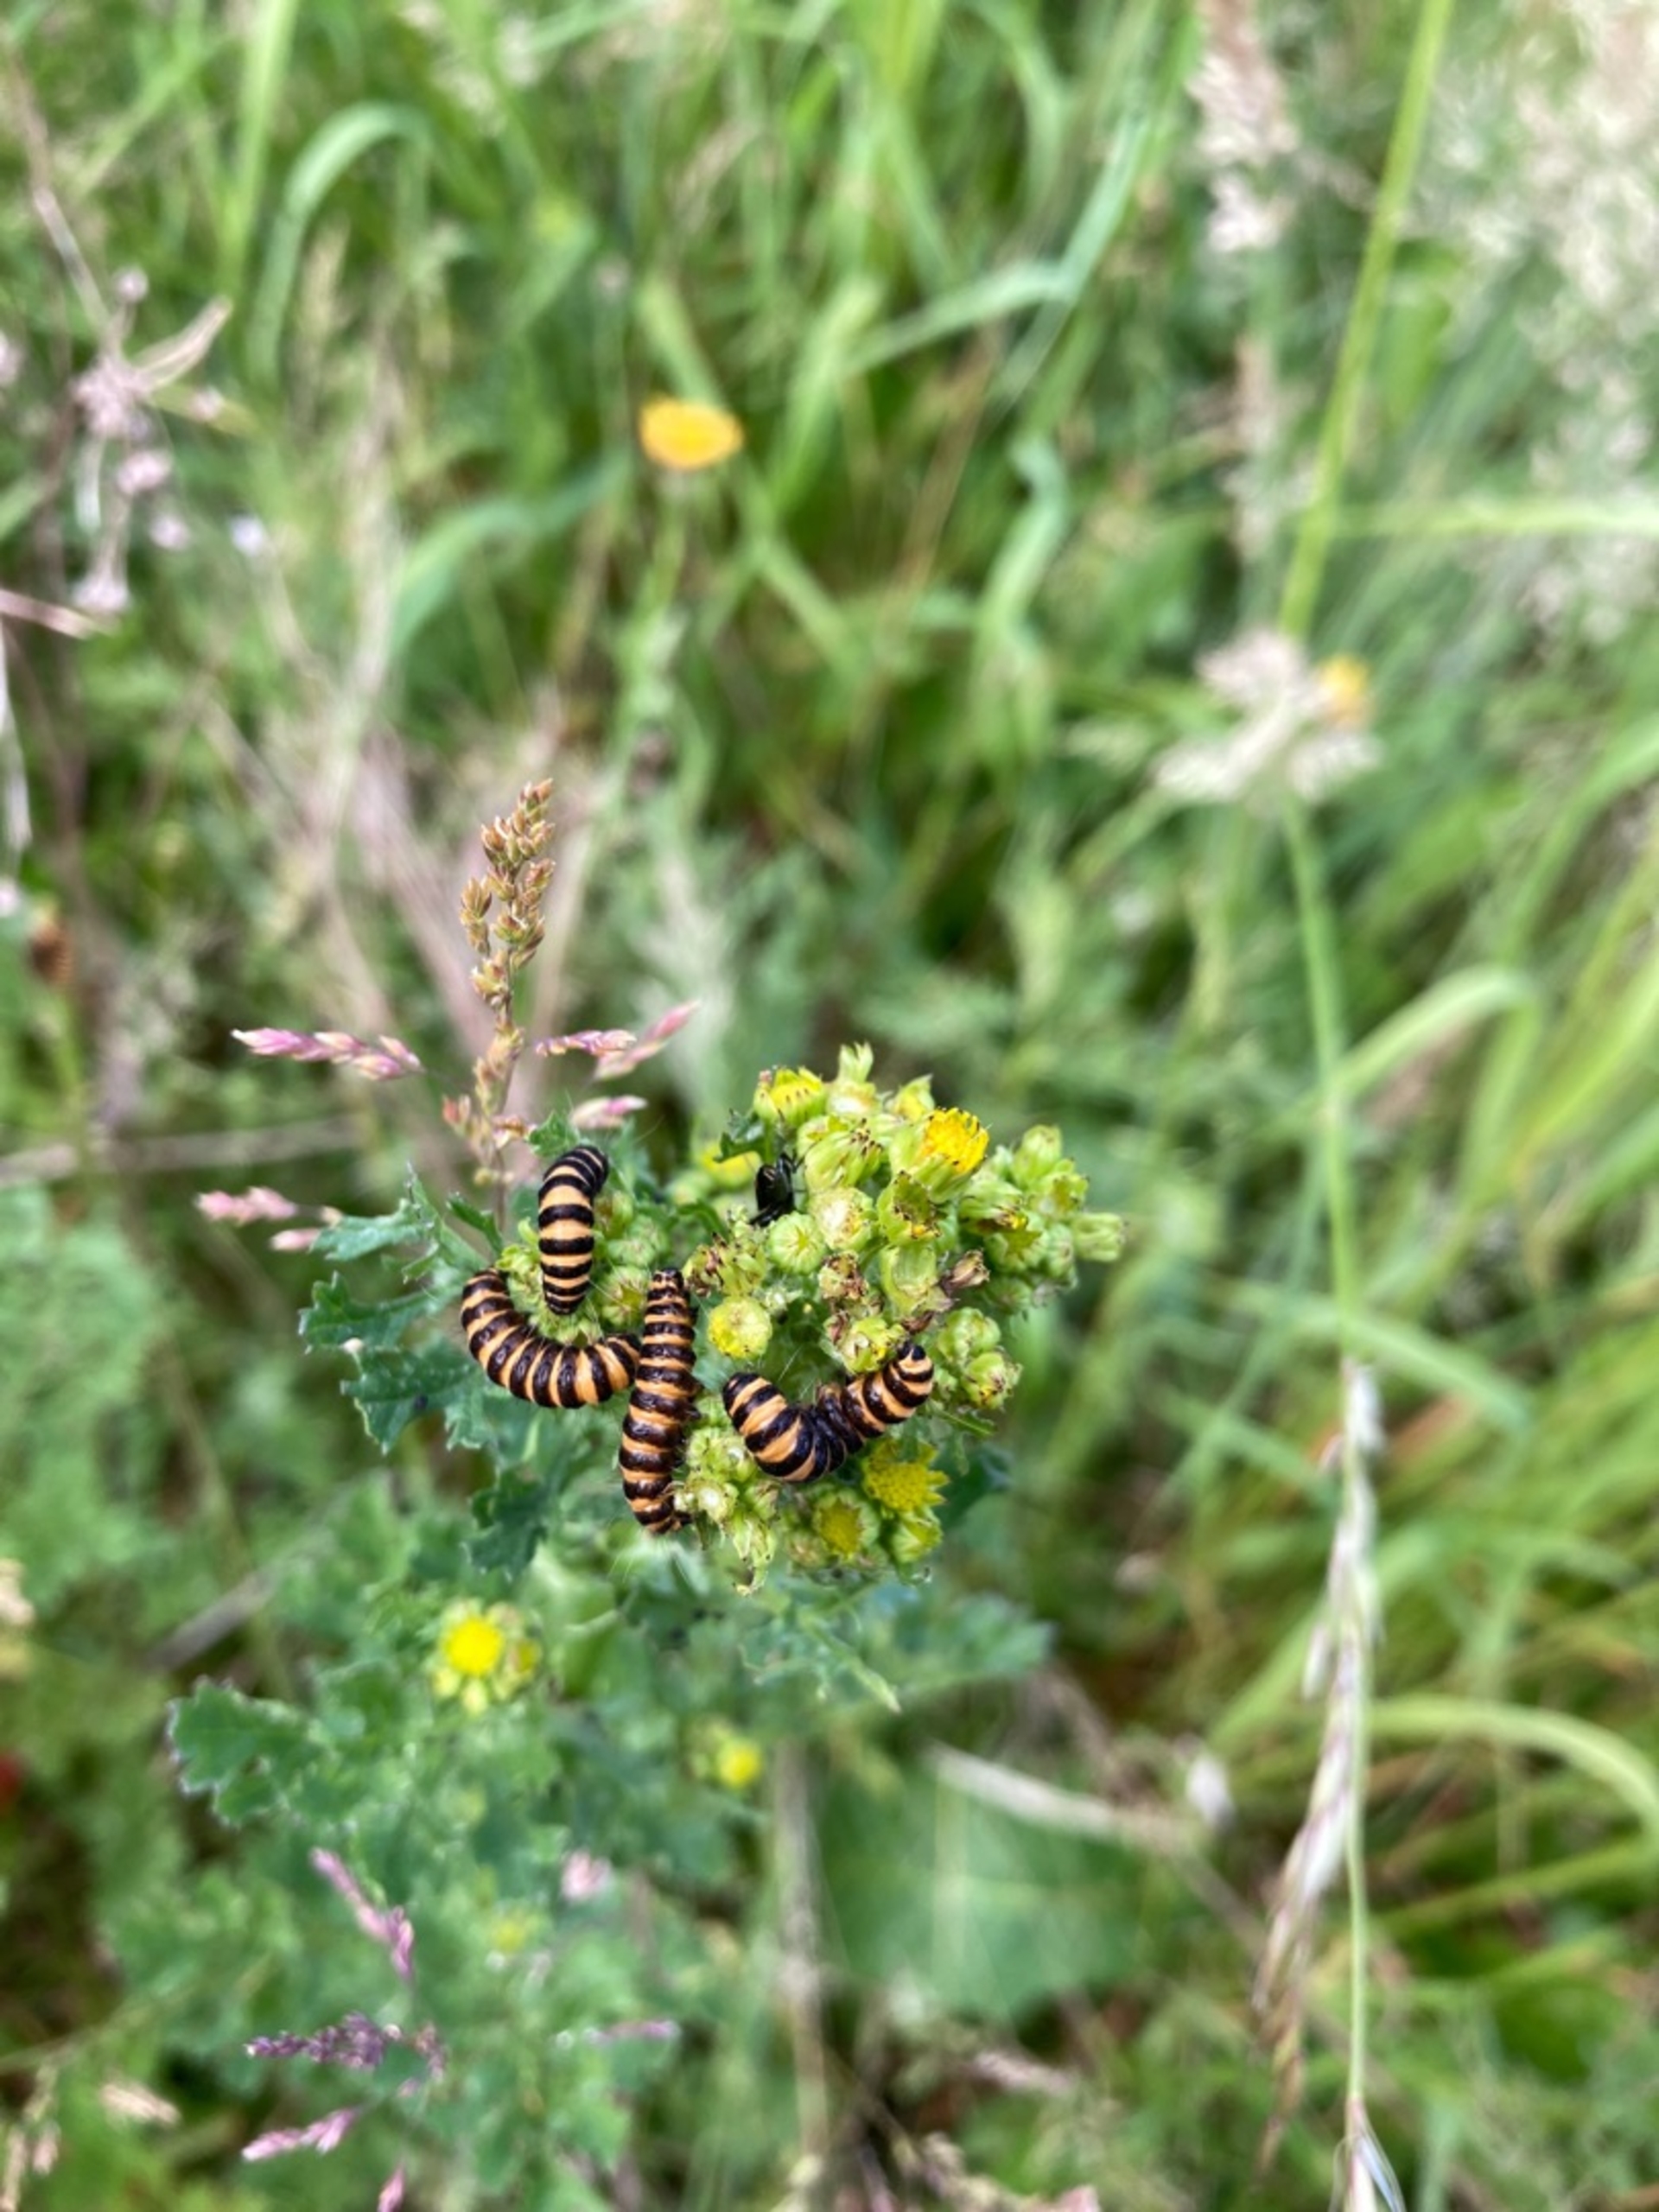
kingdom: Animalia
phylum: Arthropoda
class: Insecta
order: Lepidoptera
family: Erebidae
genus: Tyria
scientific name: Tyria jacobaeae
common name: Blodplet
